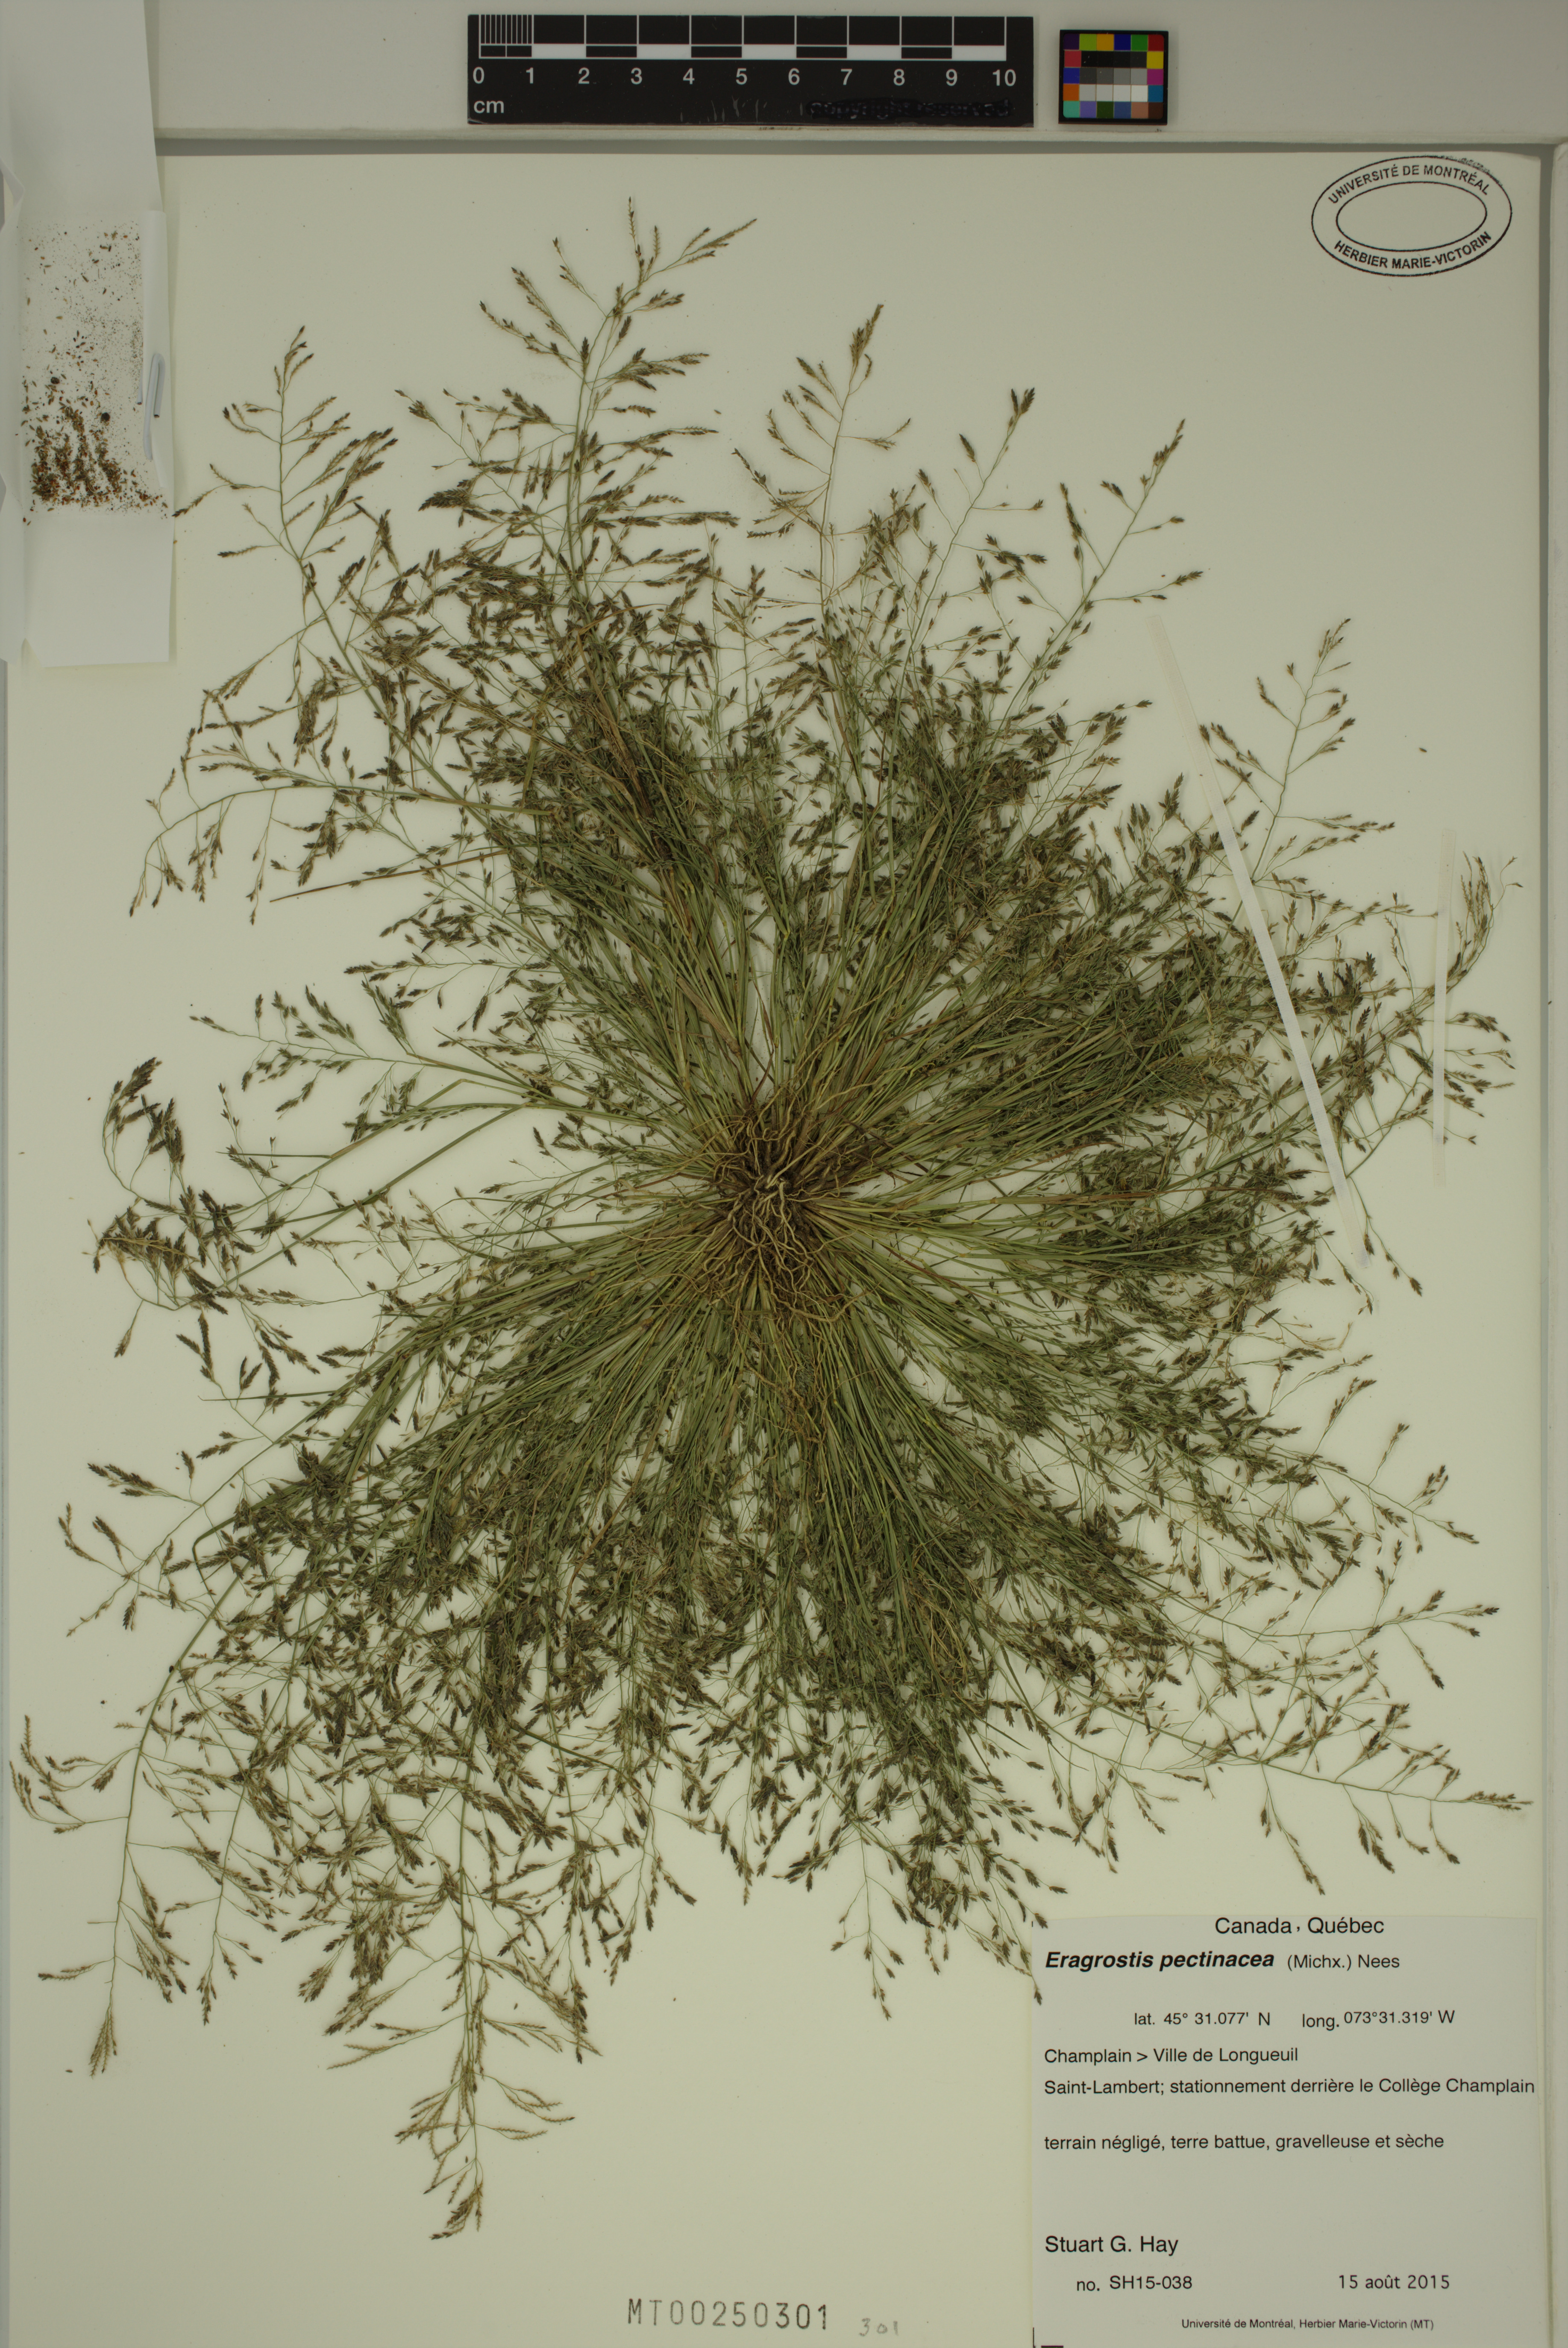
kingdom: Plantae
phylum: Tracheophyta
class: Liliopsida
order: Poales
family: Poaceae
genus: Eragrostis
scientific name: Eragrostis pectinacea
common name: Tufted lovegrass
